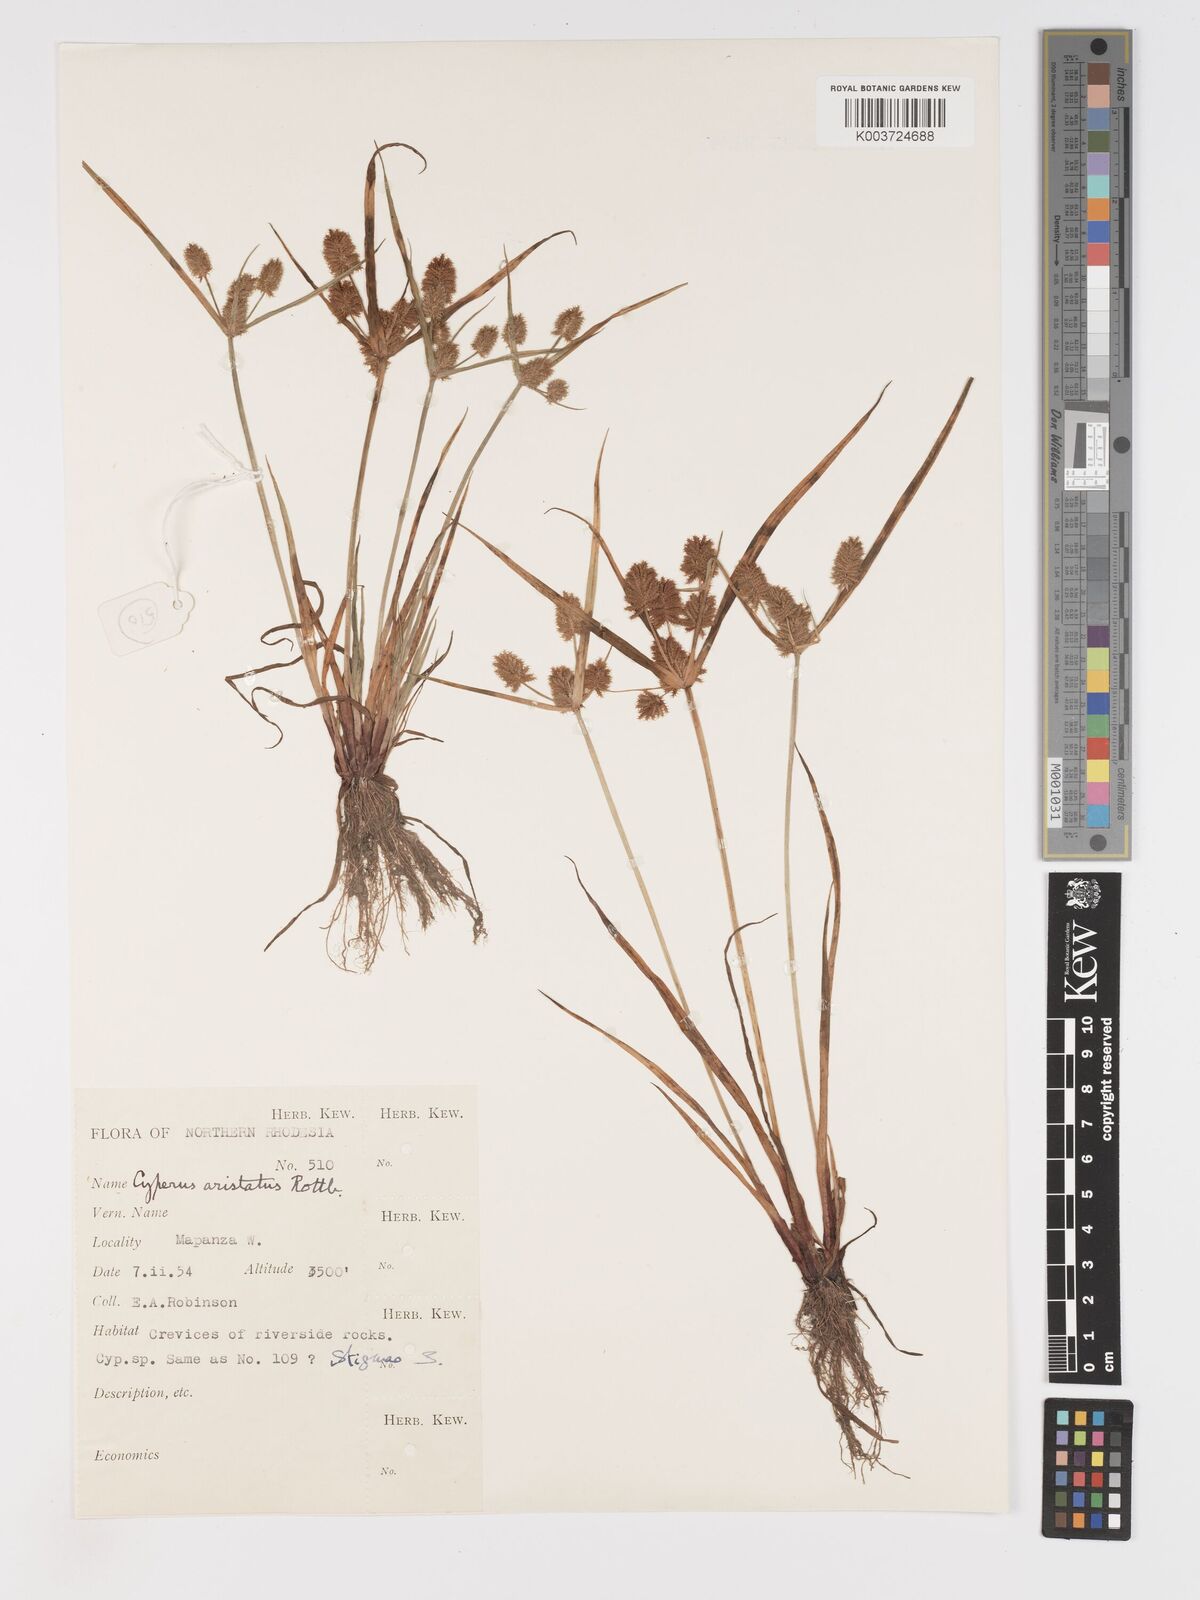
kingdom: Plantae
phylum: Tracheophyta
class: Liliopsida
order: Poales
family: Cyperaceae
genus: Cyperus
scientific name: Cyperus squarrosus
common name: Awned cyperus
